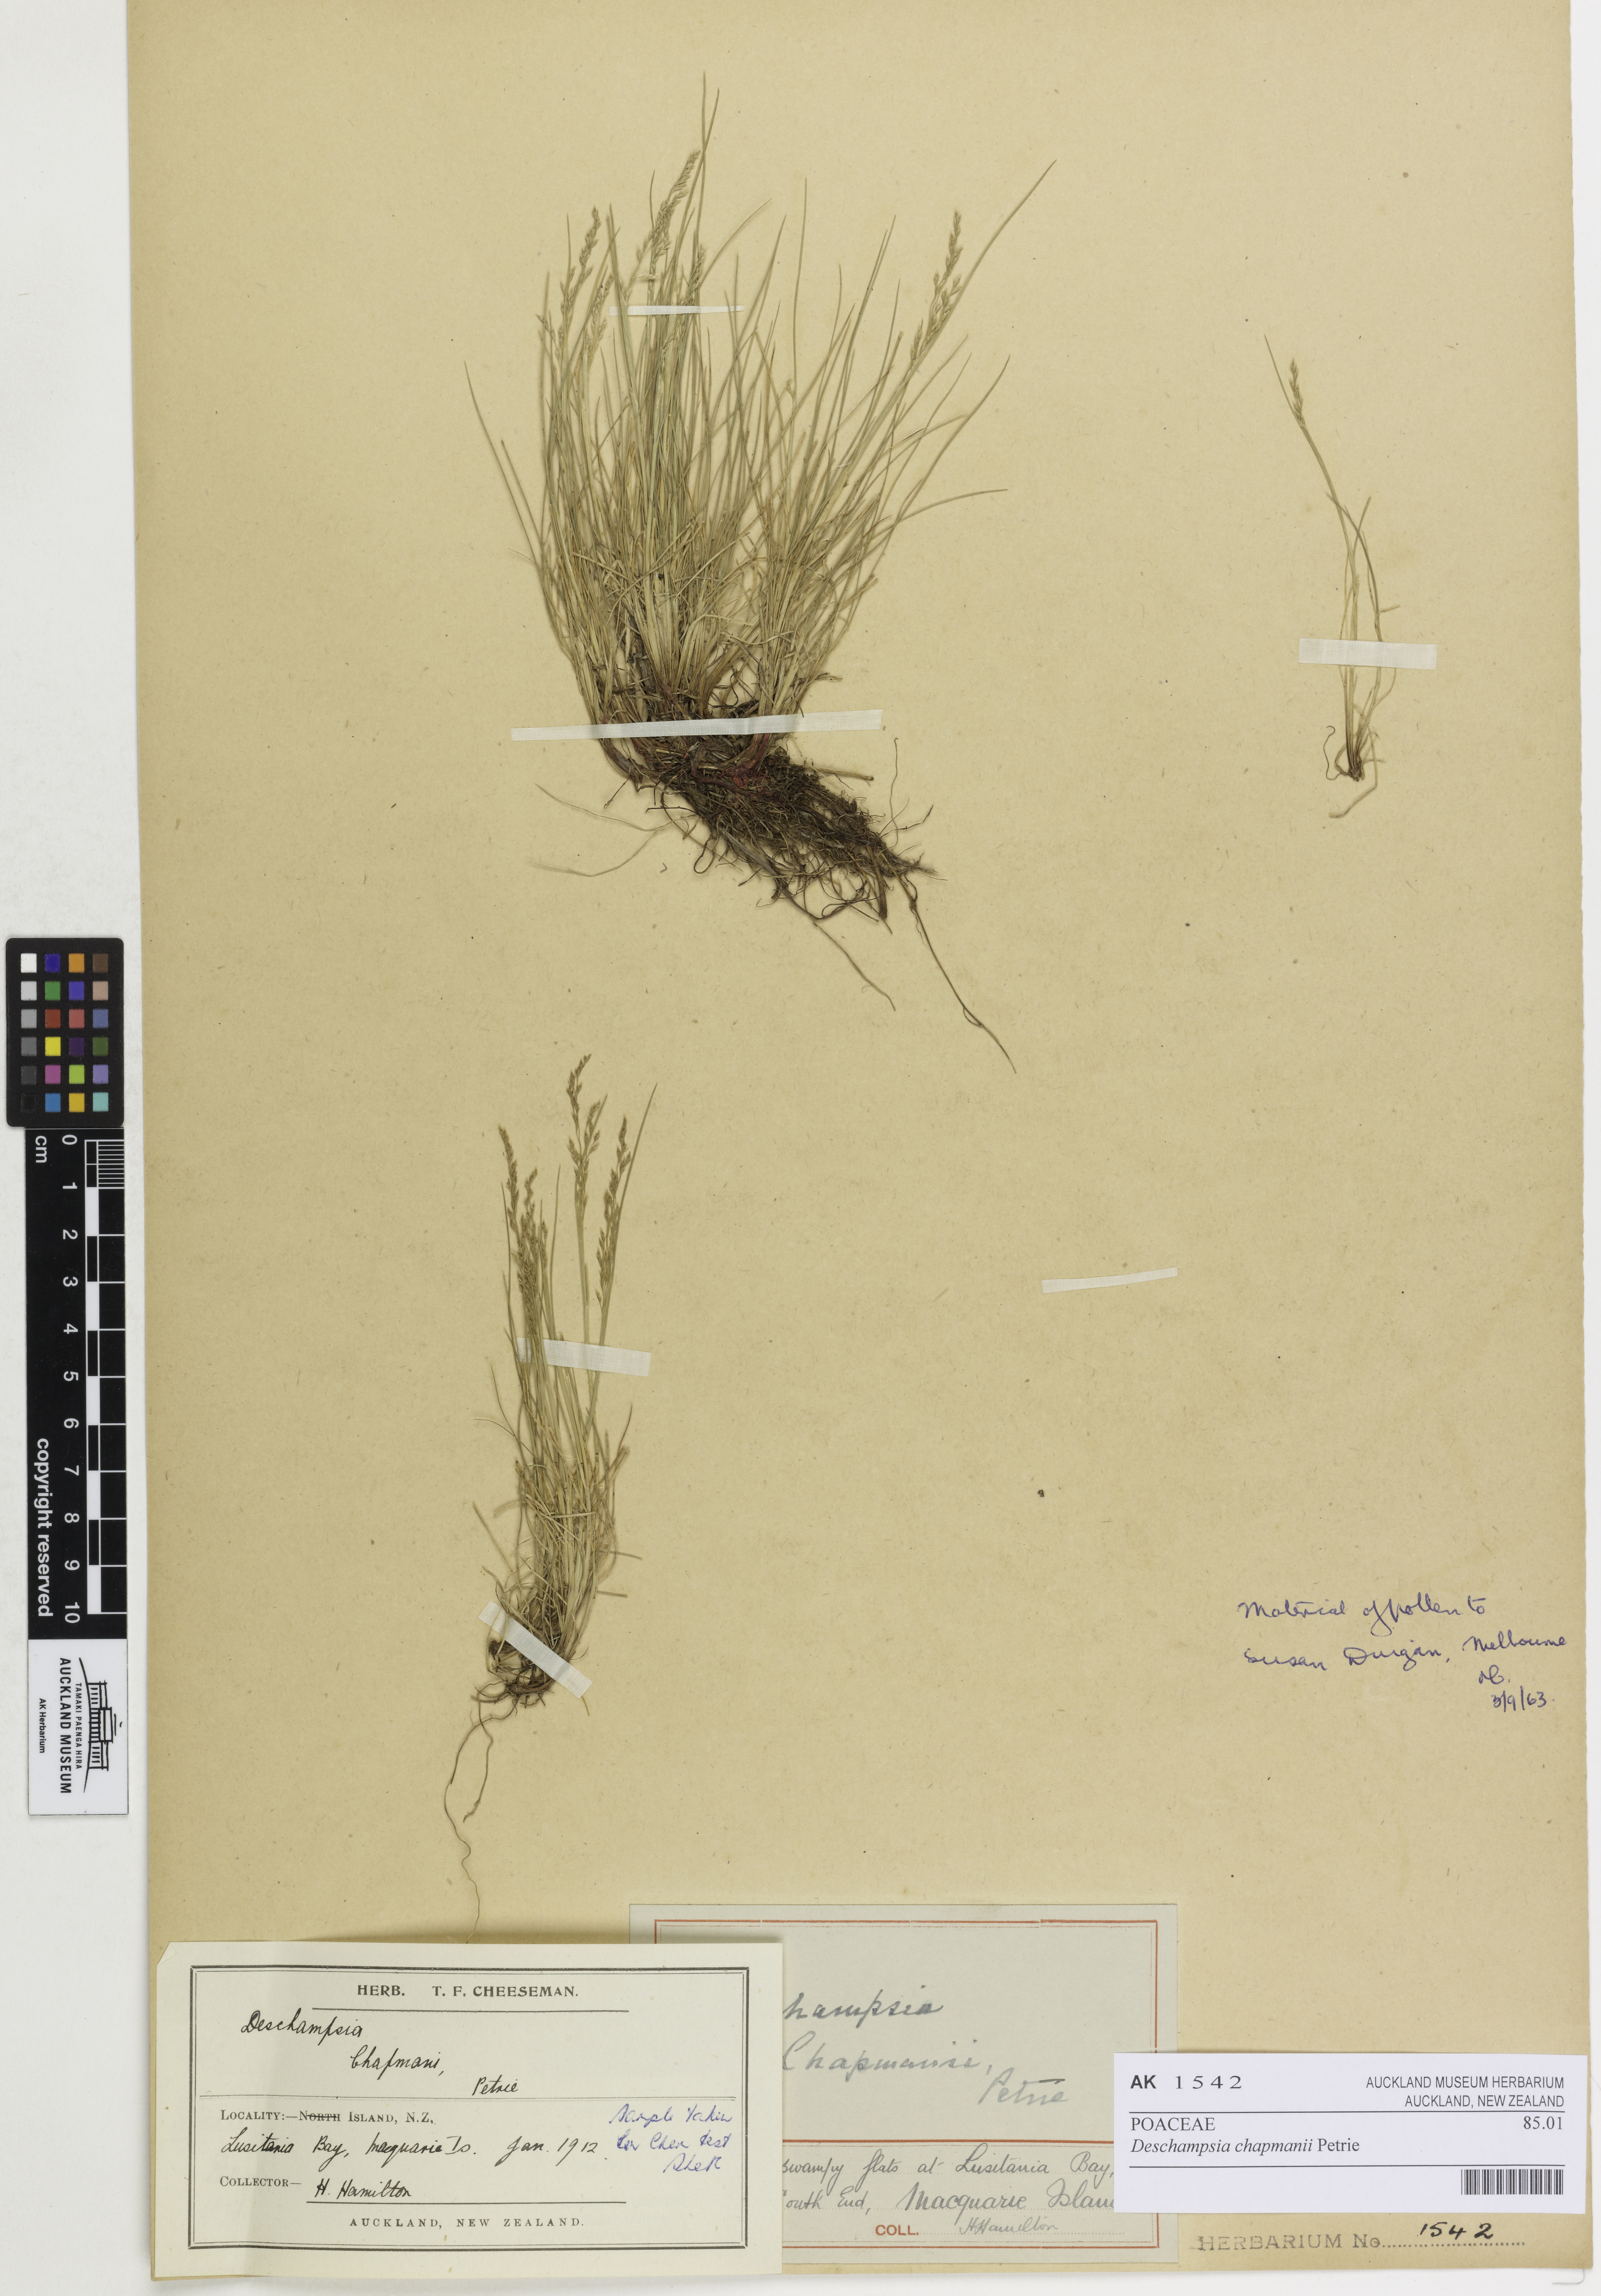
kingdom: Plantae
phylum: Tracheophyta
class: Liliopsida
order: Poales
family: Poaceae
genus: Deschampsia
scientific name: Deschampsia chapmanii
